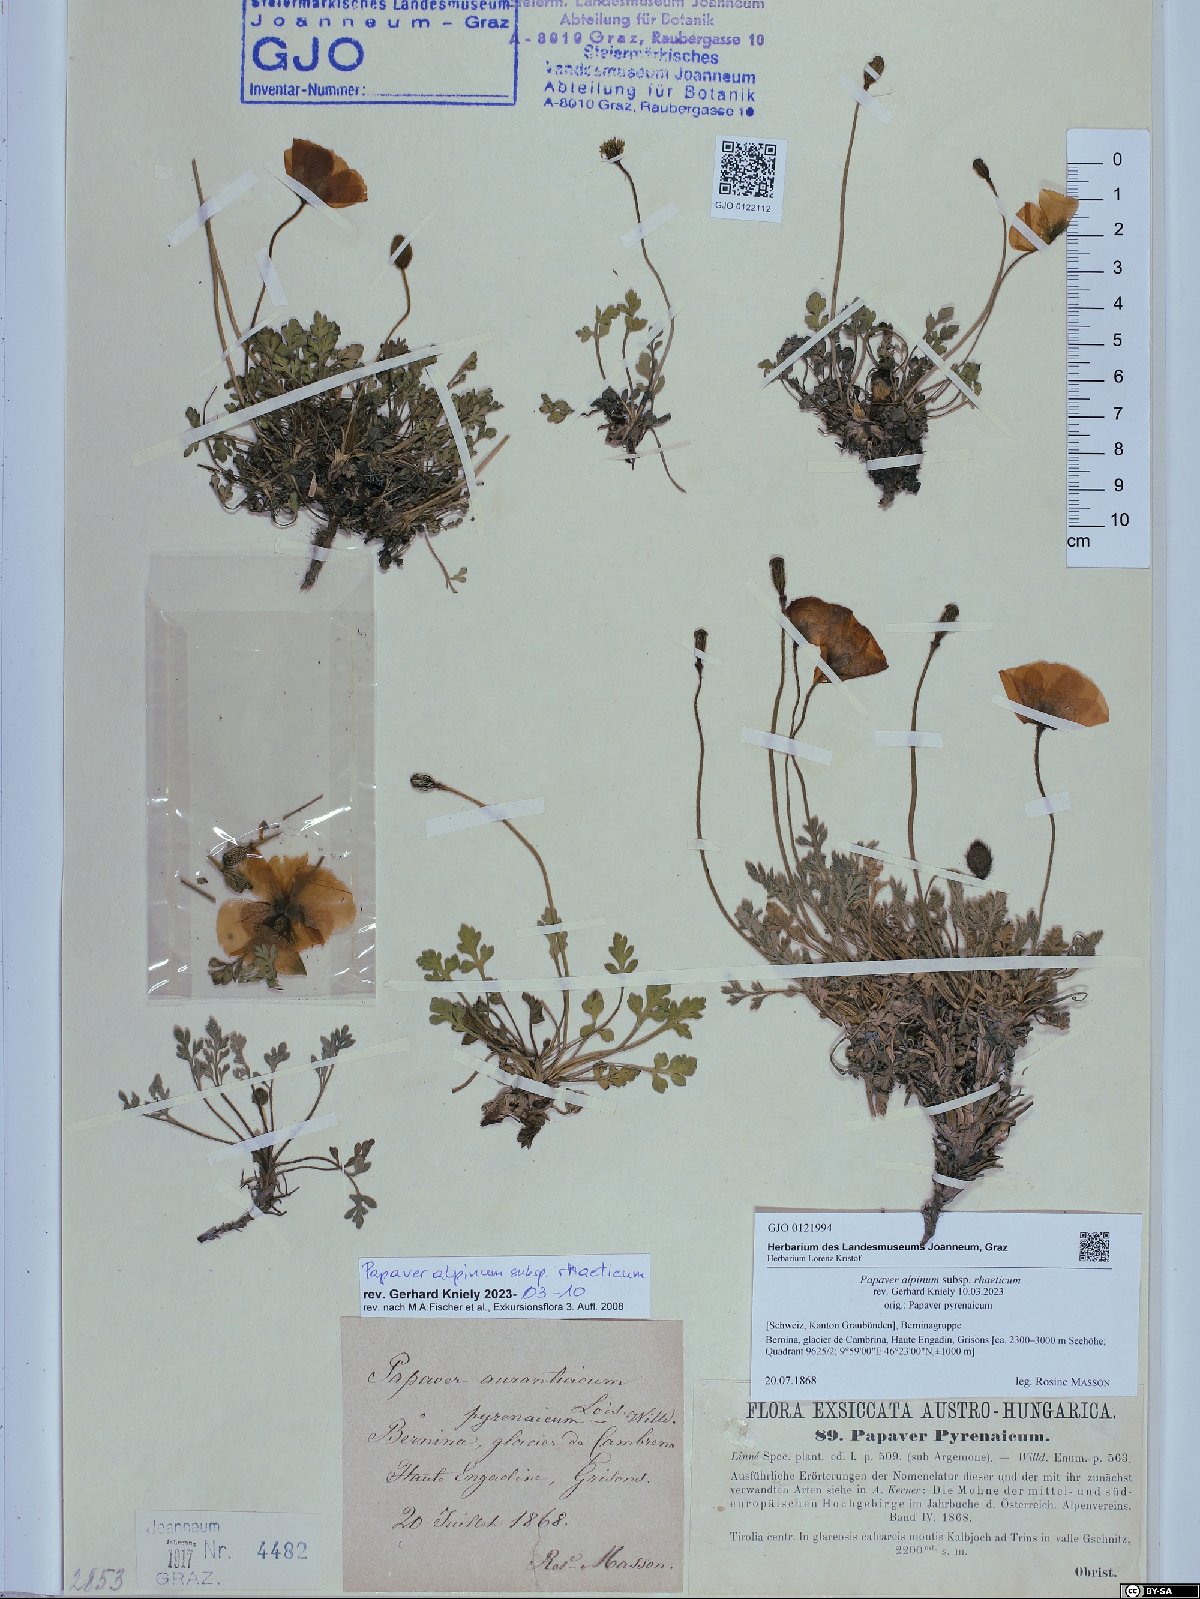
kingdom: Plantae
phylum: Tracheophyta
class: Magnoliopsida
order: Ranunculales
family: Papaveraceae
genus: Papaver
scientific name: Papaver alpinum
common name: Austrian poppy
